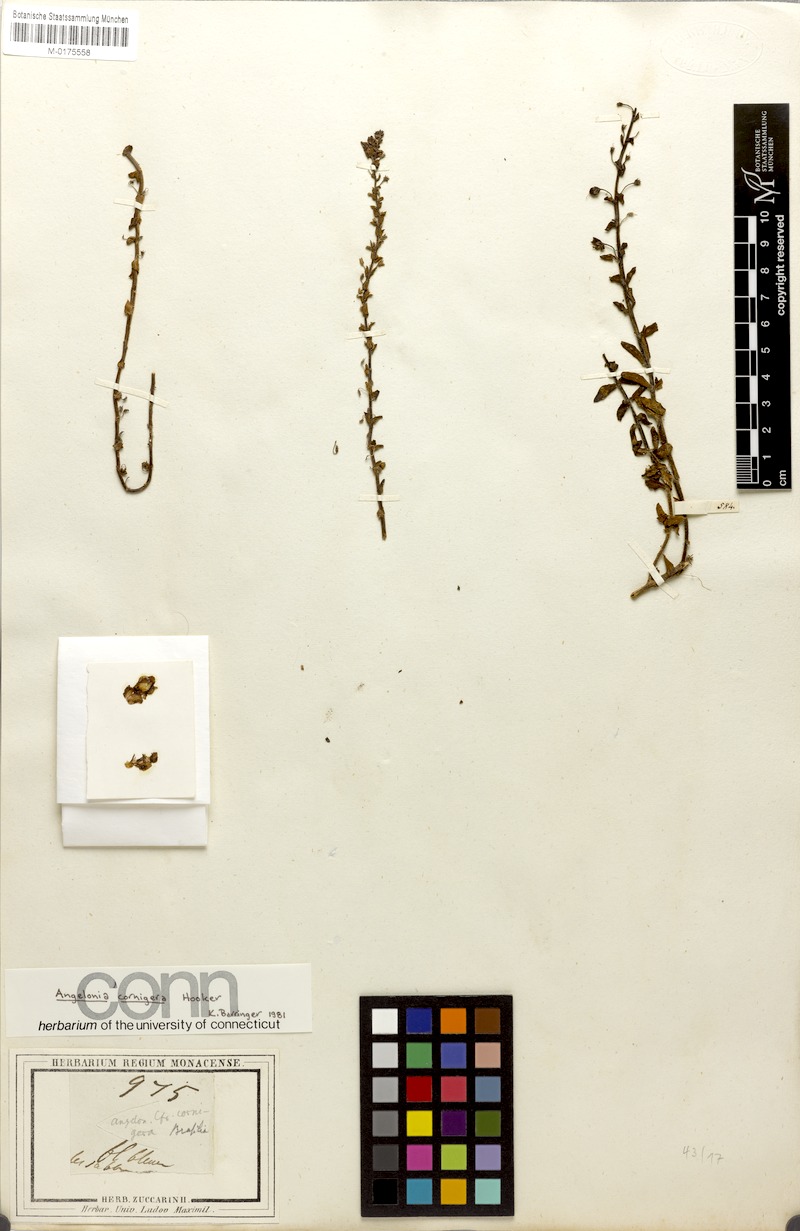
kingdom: Plantae
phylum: Tracheophyta
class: Magnoliopsida
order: Lamiales
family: Plantaginaceae
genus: Angelonia
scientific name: Angelonia cornigera
